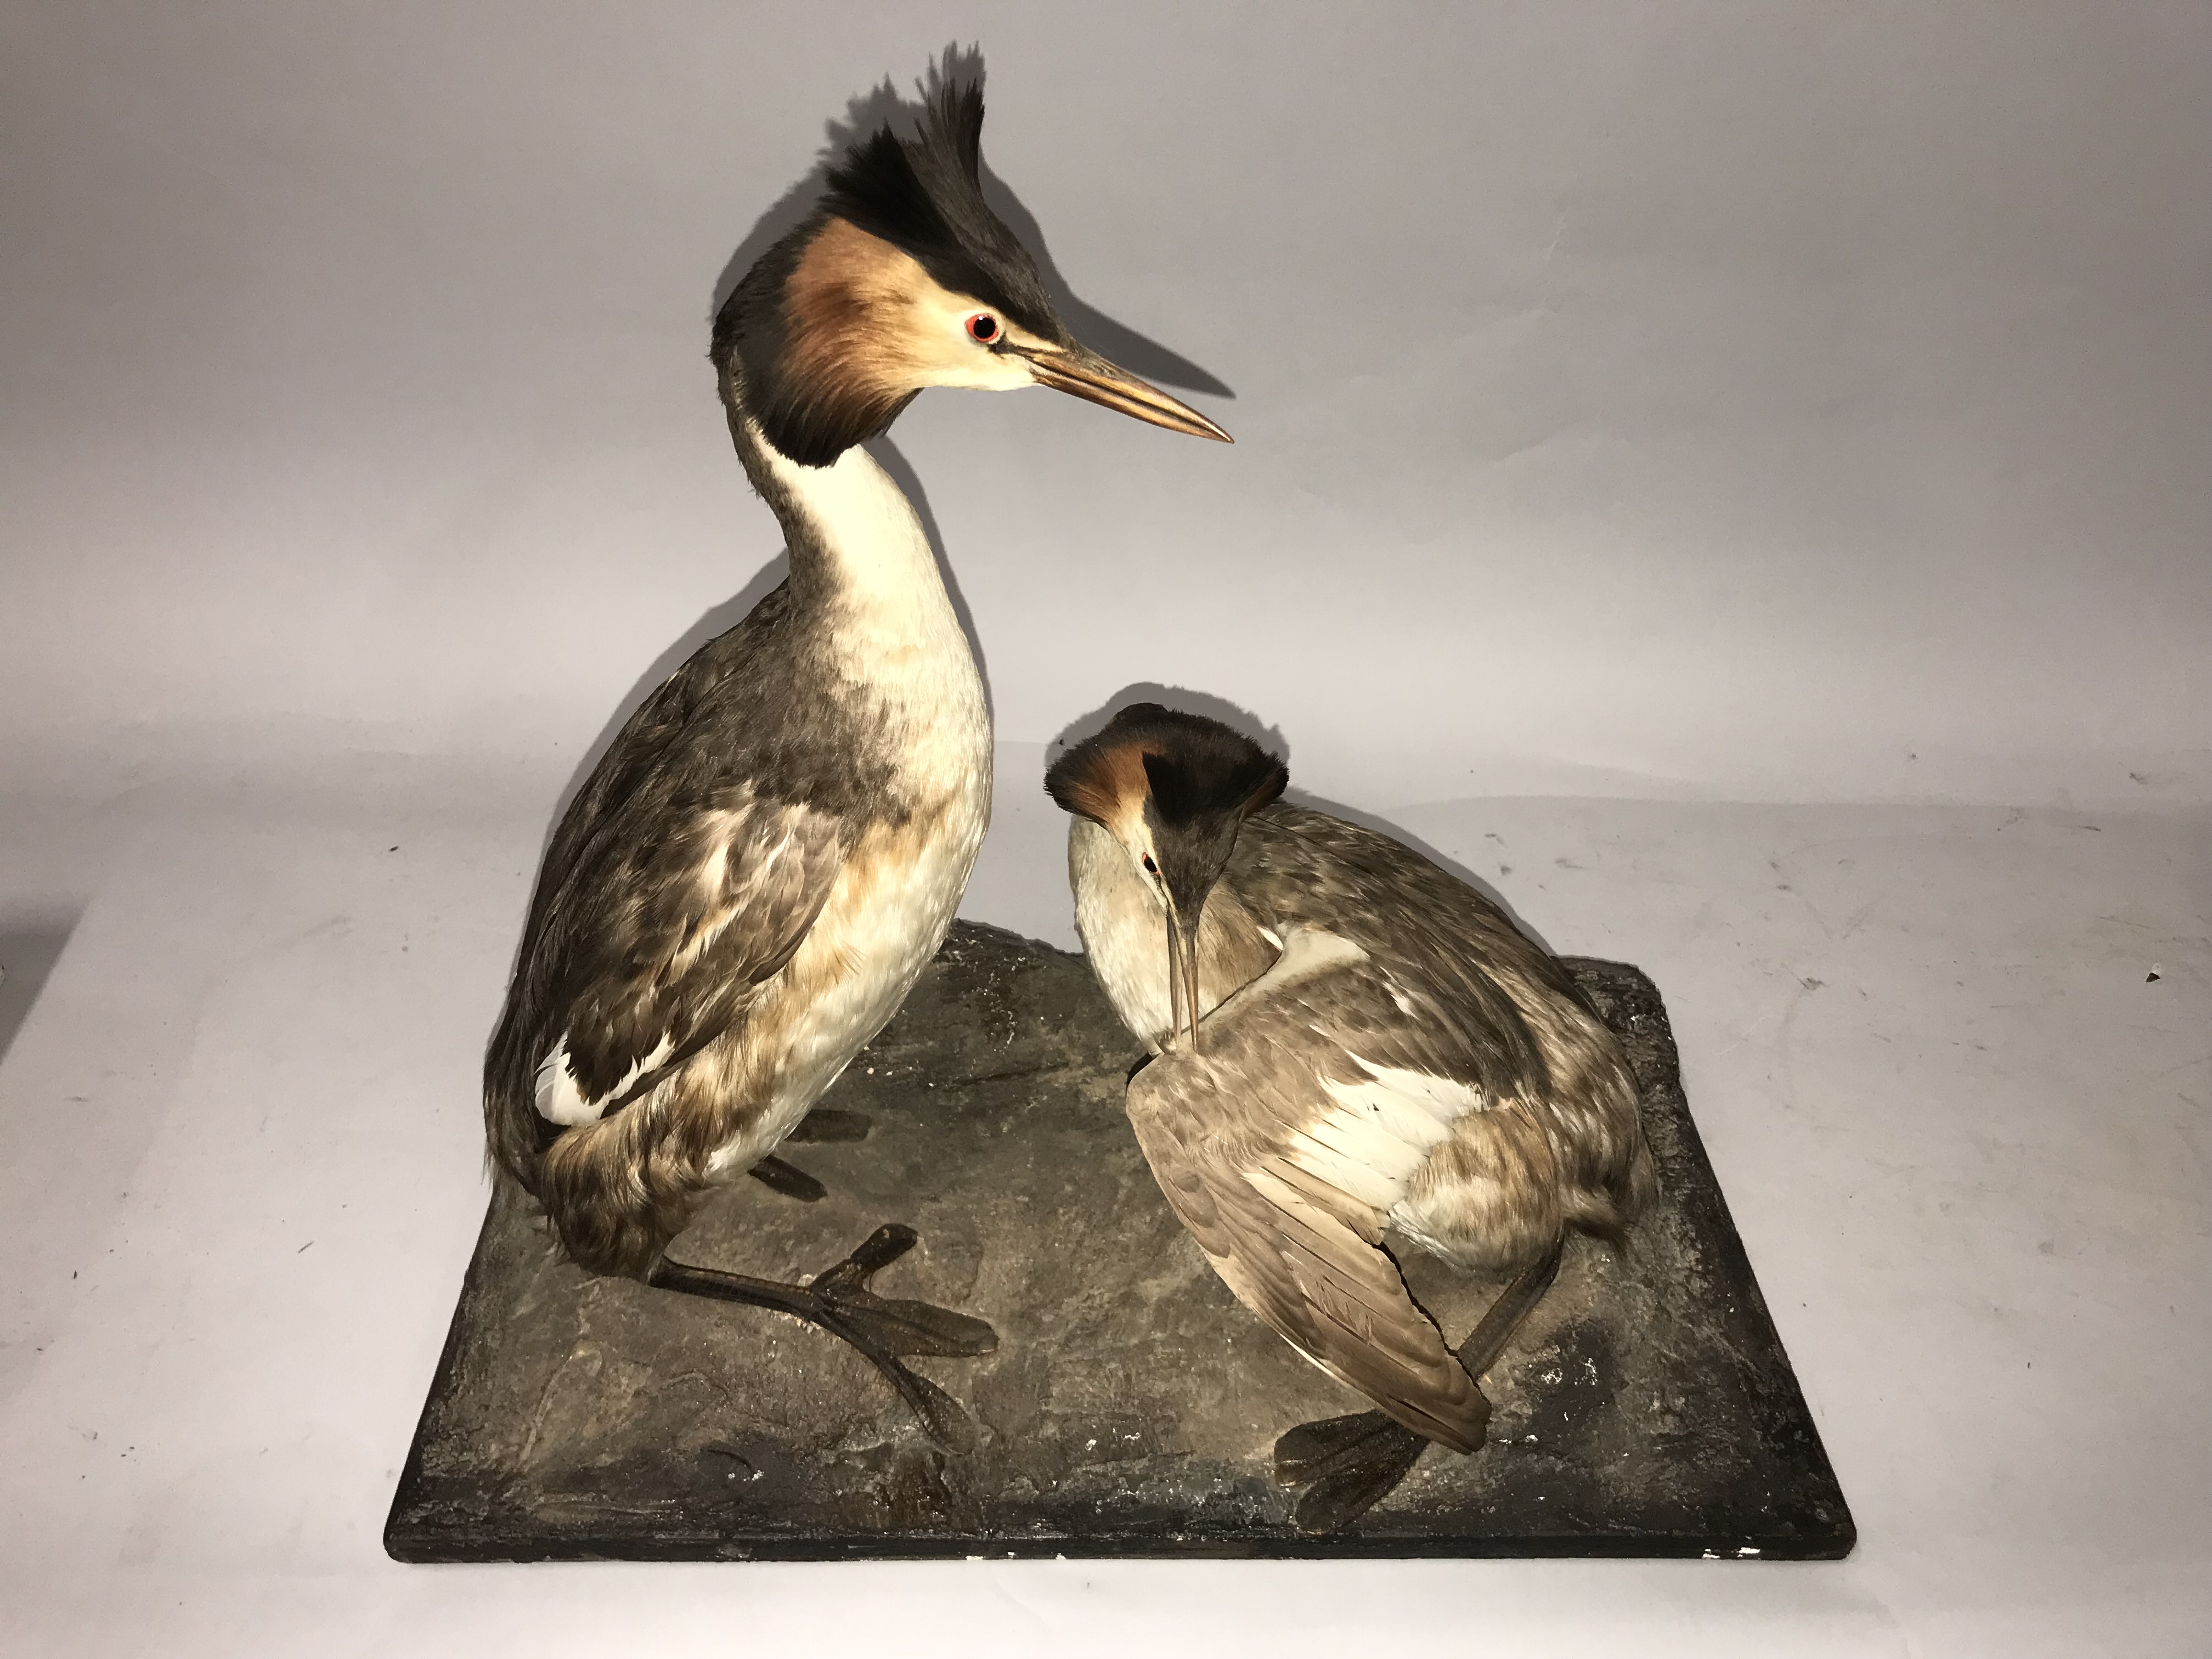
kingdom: Animalia
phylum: Chordata
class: Aves
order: Podicipediformes
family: Podicipedidae
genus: Podiceps
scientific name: Podiceps cristatus
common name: Great crested grebe
